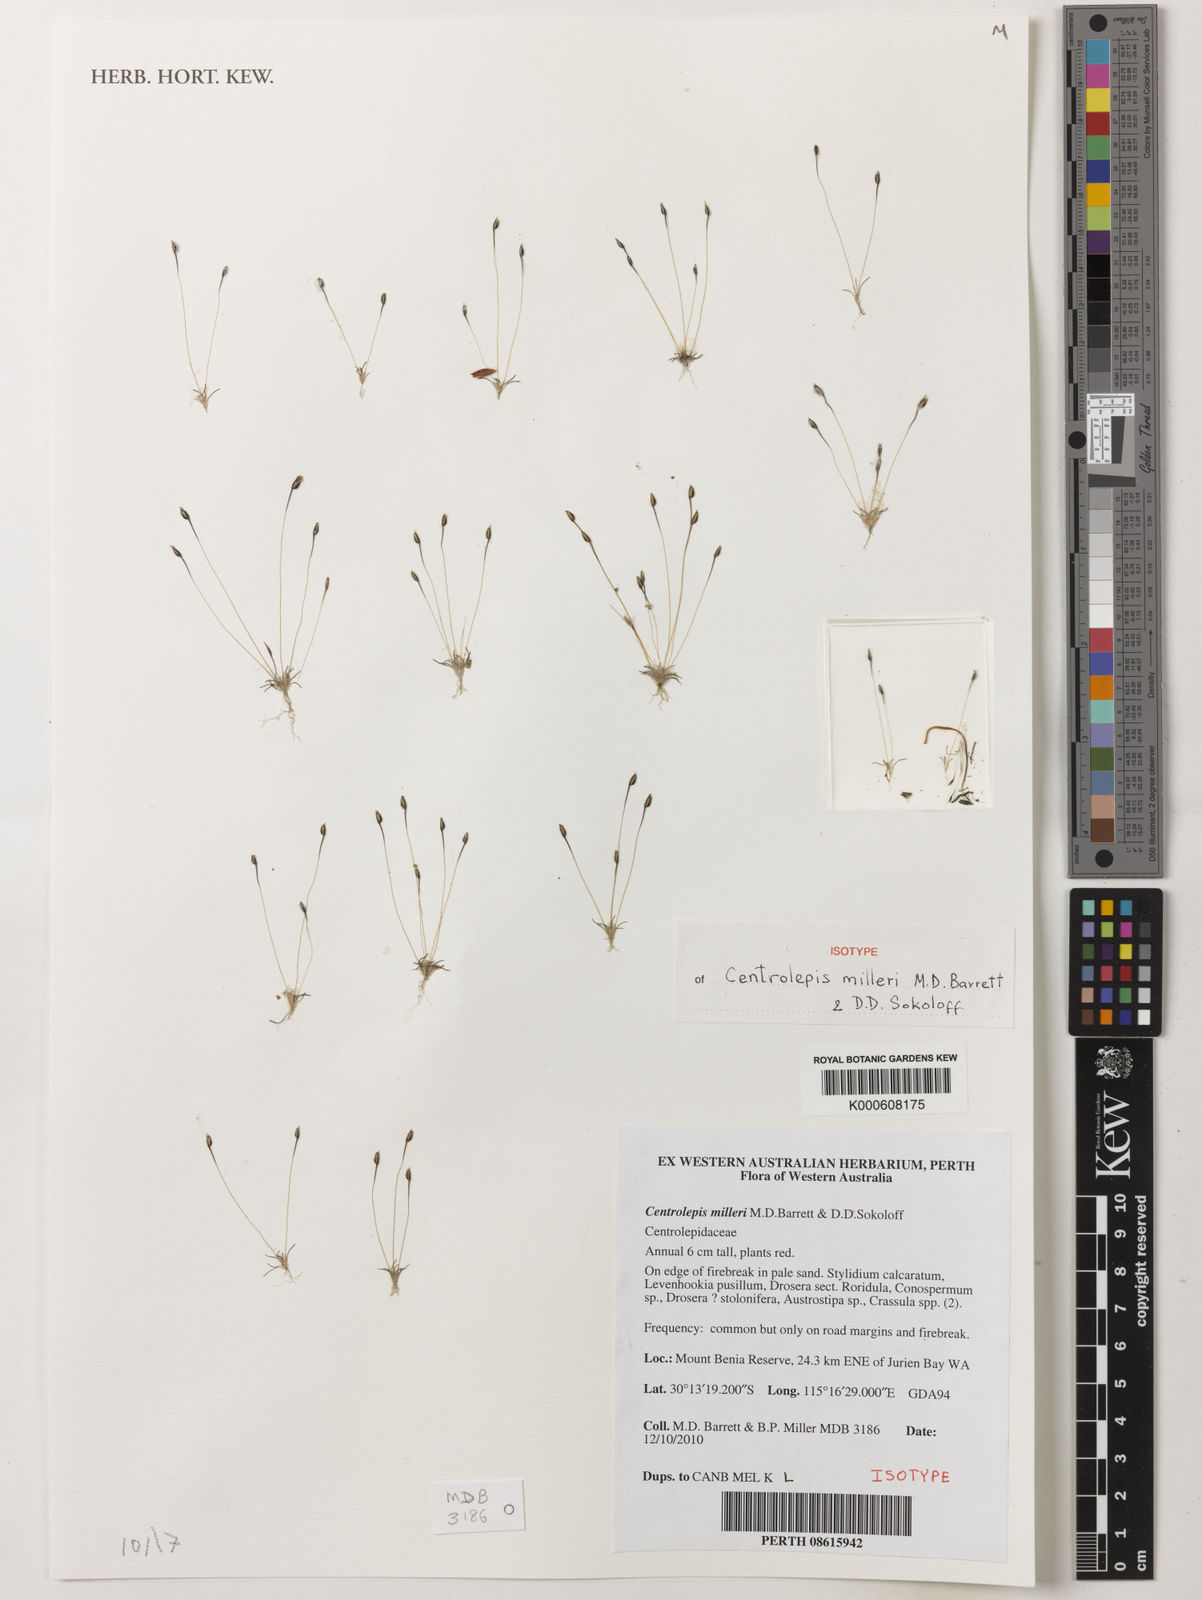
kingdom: Plantae
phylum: Tracheophyta
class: Liliopsida
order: Poales
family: Restionaceae
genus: Centrolepis
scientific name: Centrolepis milleri
